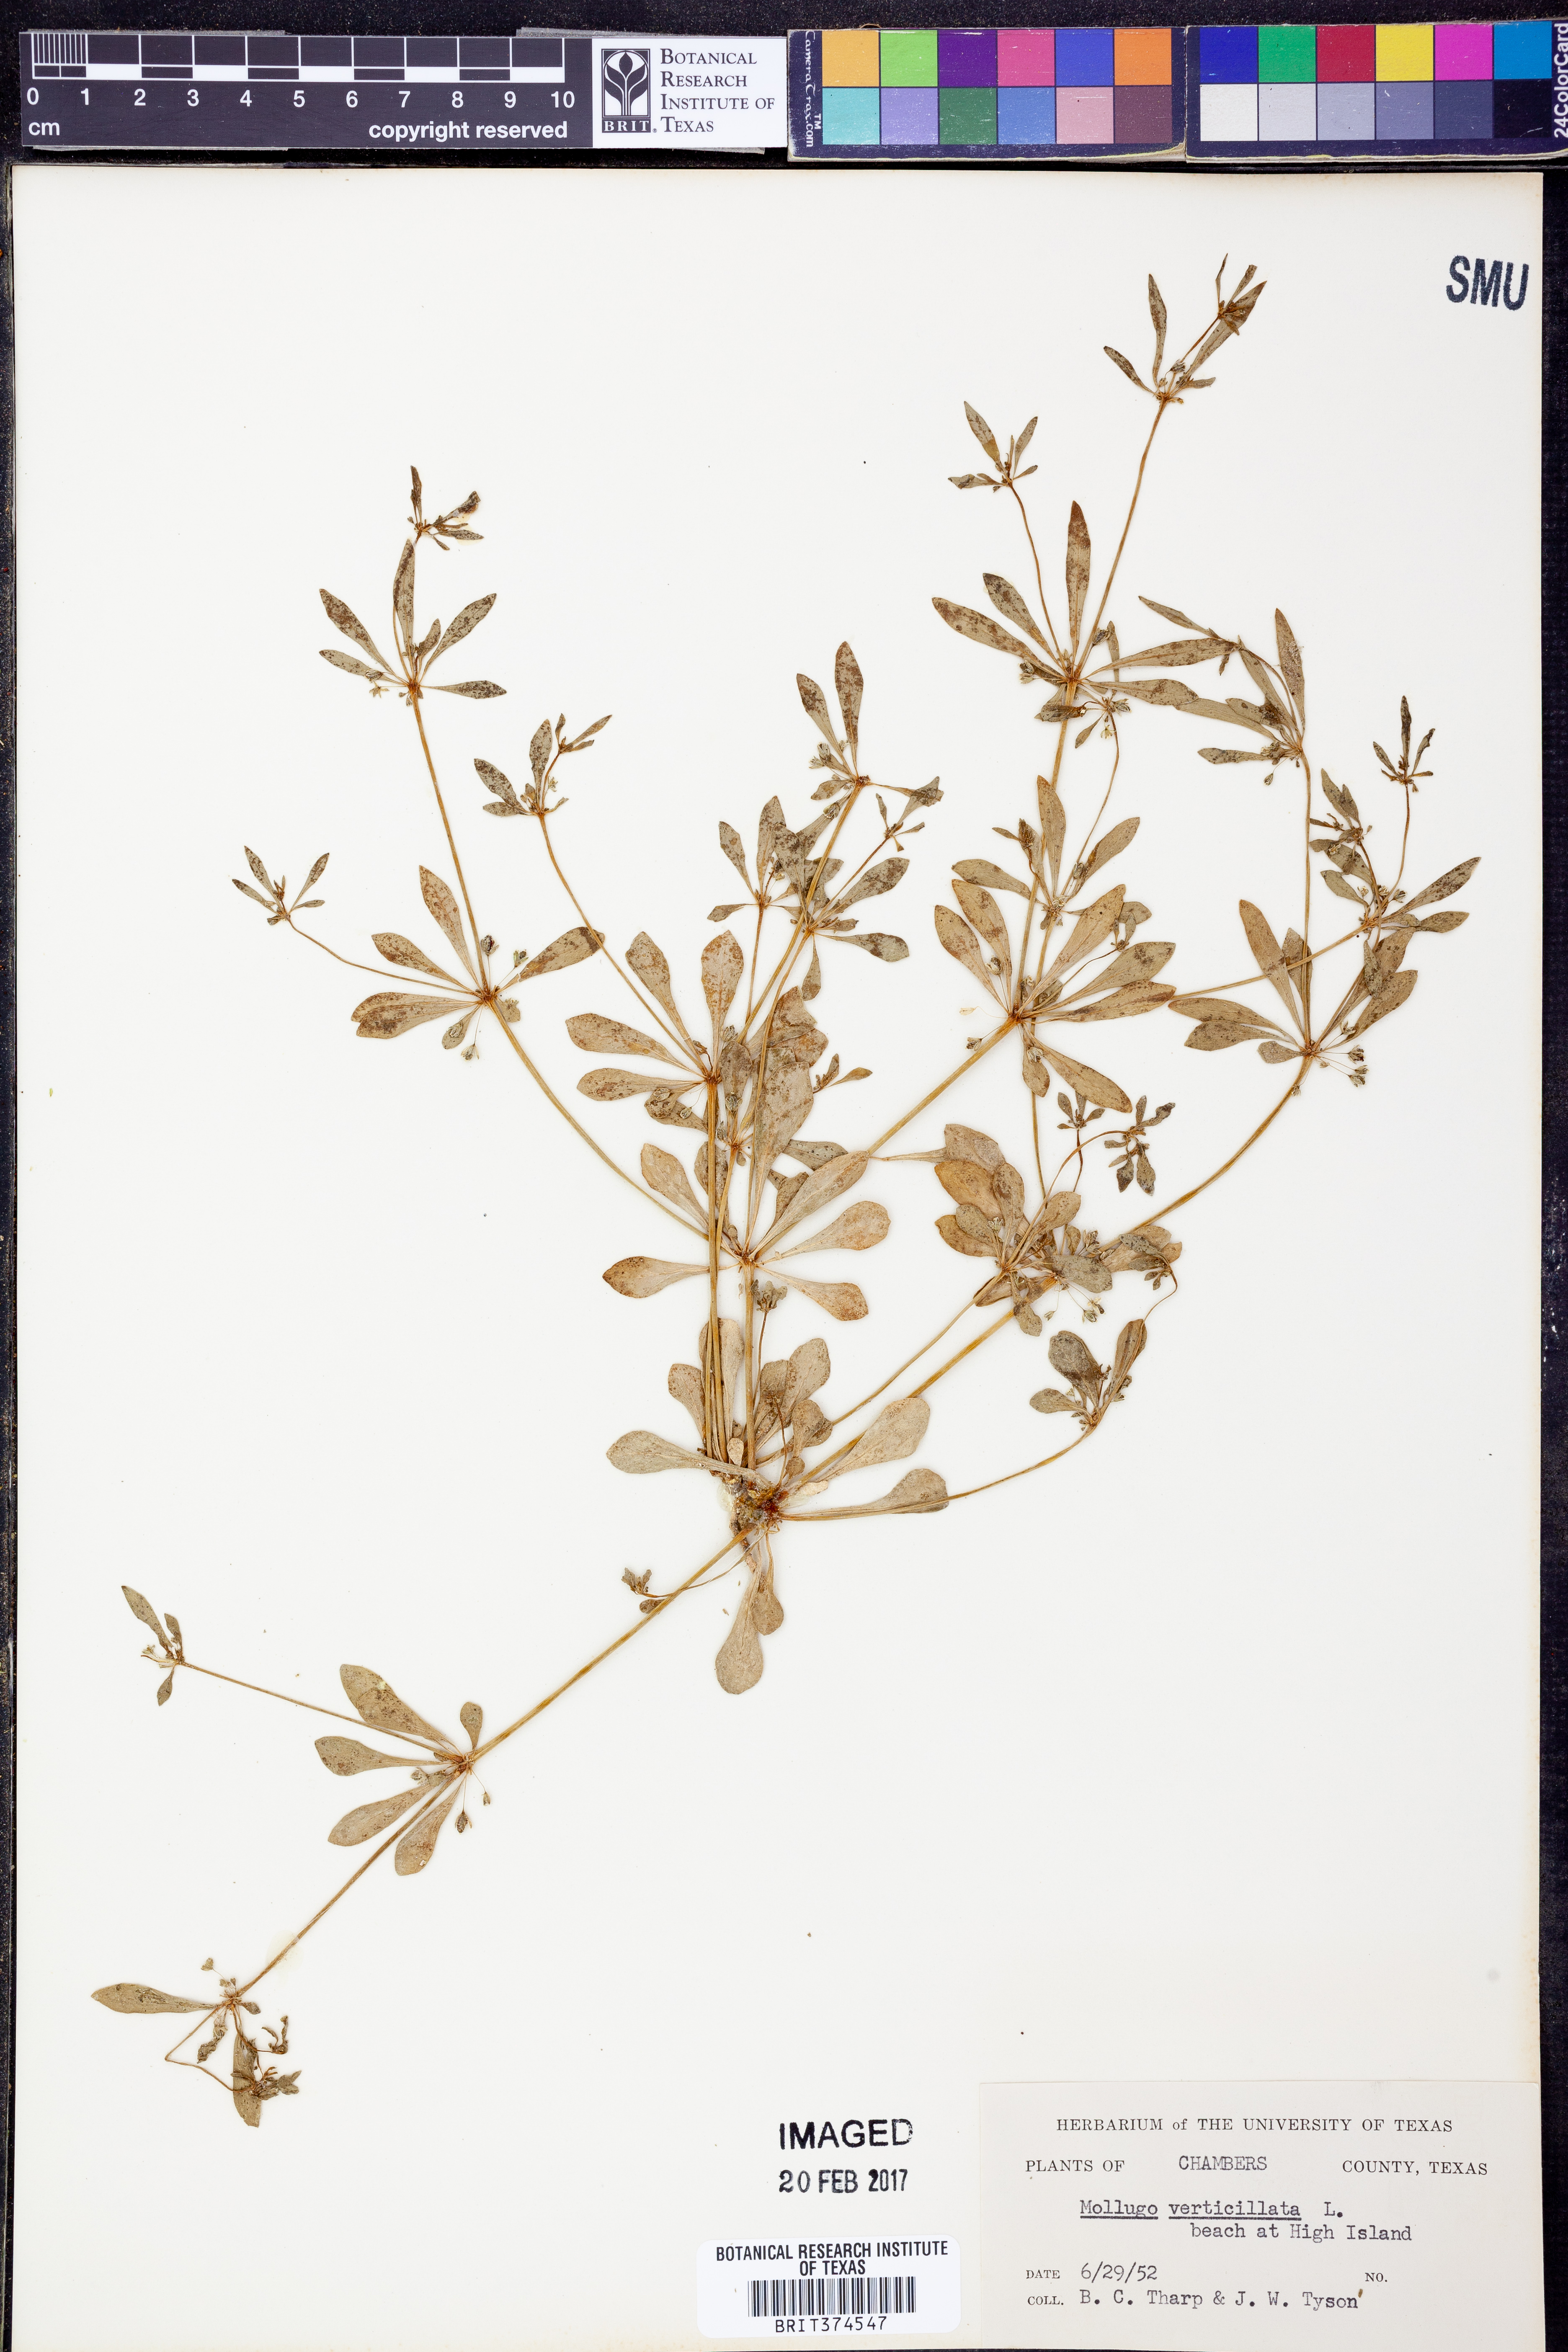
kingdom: Plantae
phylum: Tracheophyta
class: Magnoliopsida
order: Caryophyllales
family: Molluginaceae
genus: Mollugo
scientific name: Mollugo verticillata
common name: Green carpetweed
